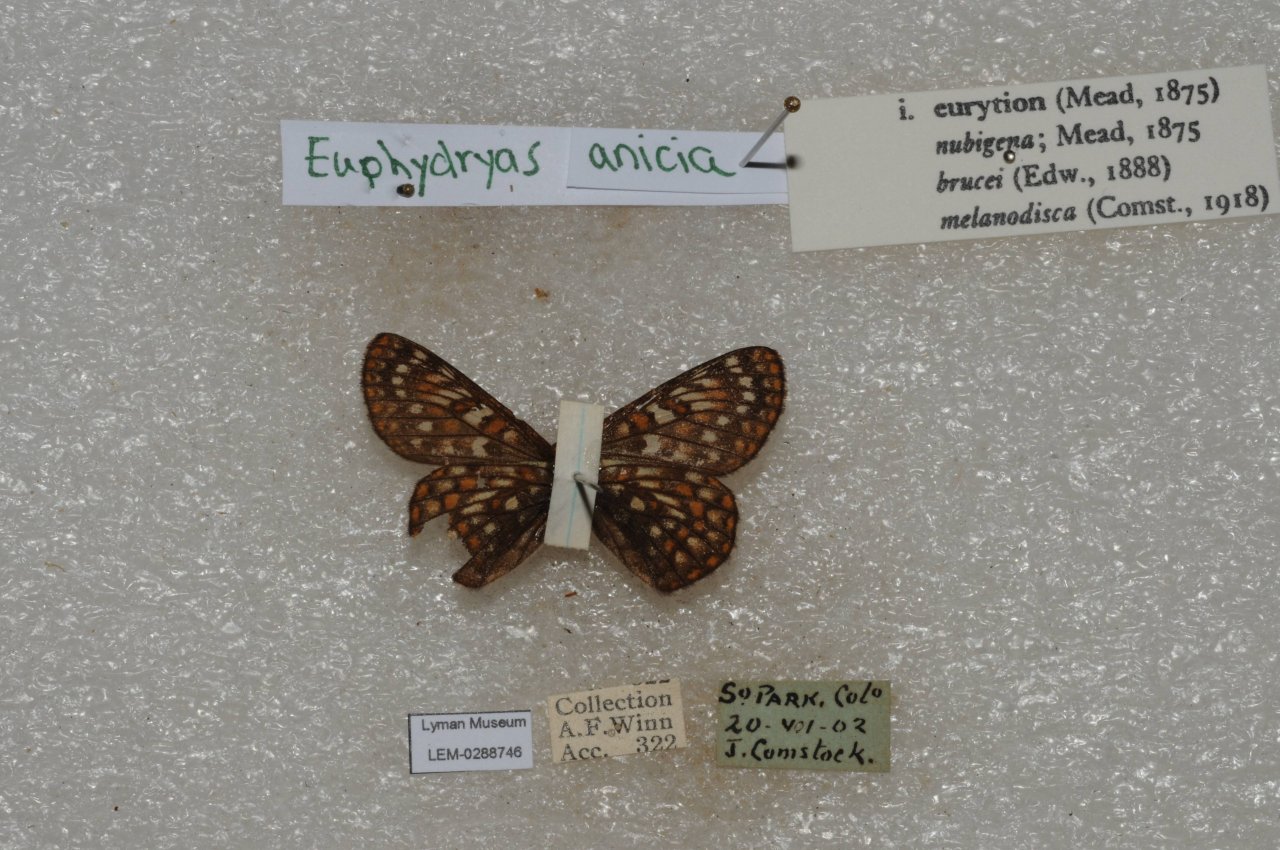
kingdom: Animalia
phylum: Arthropoda
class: Insecta
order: Lepidoptera
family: Nymphalidae
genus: Occidryas
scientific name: Occidryas anicia
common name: Anicia Checkerspot
